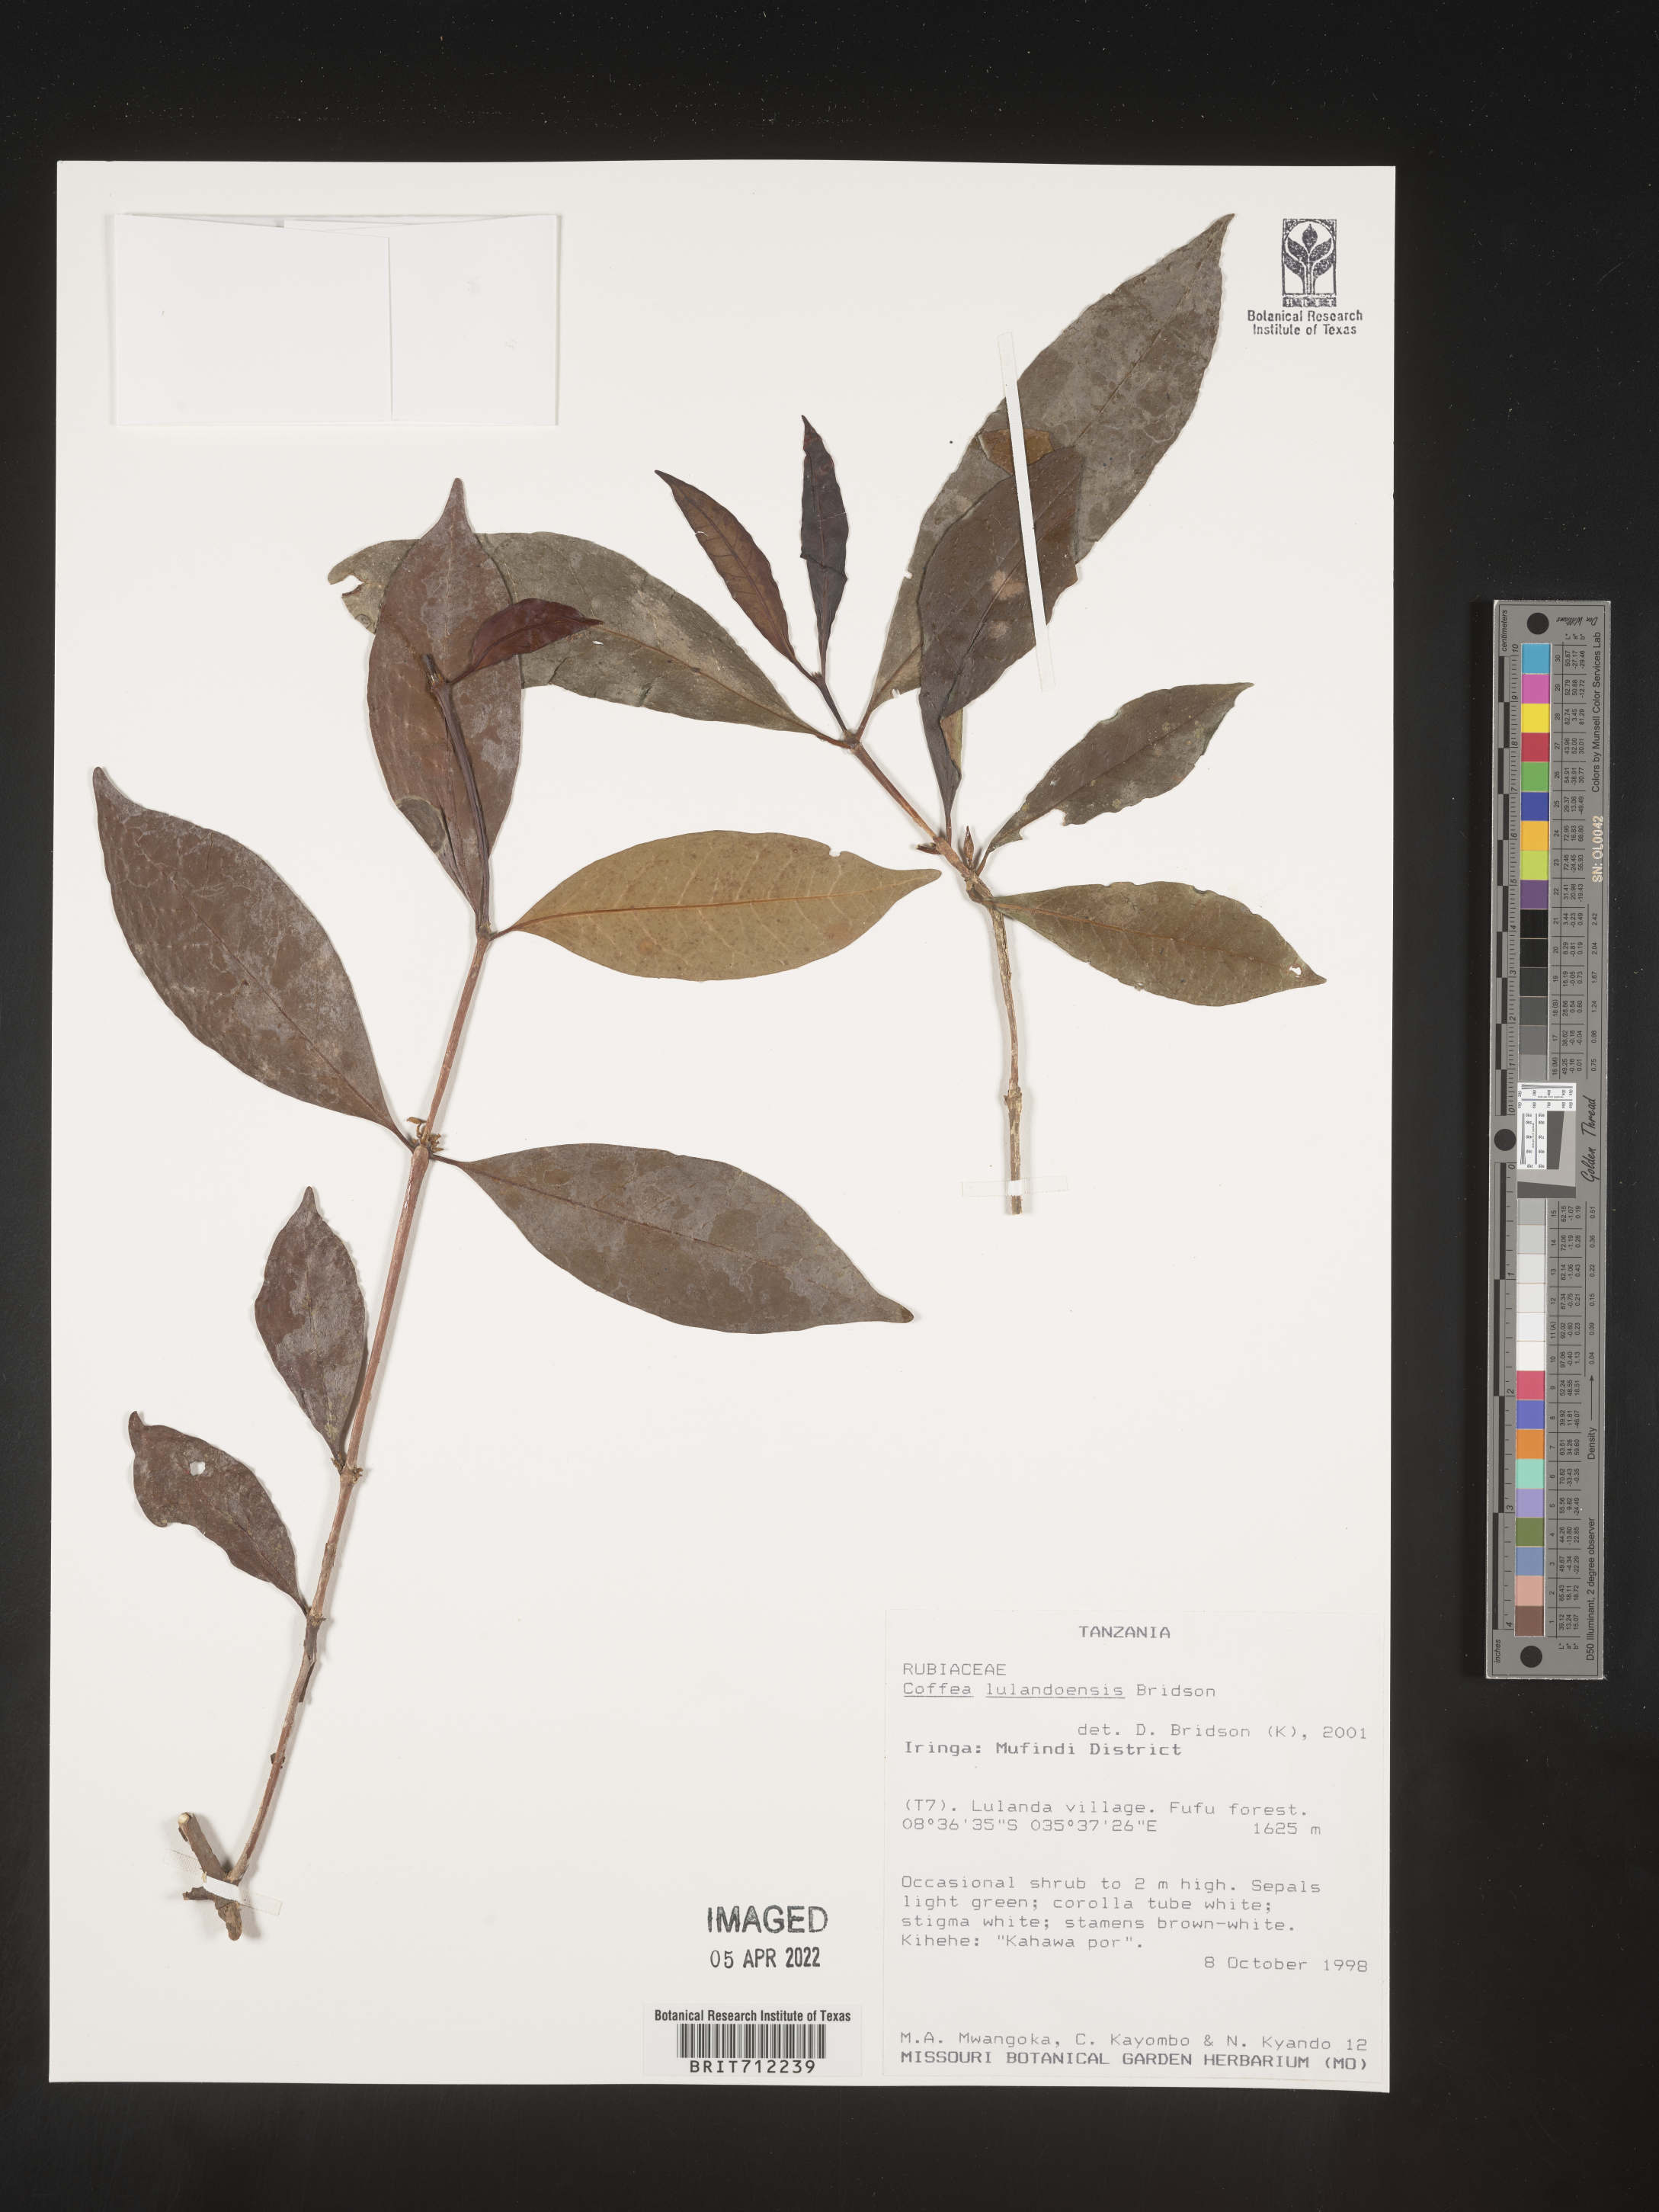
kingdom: Plantae
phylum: Tracheophyta
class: Magnoliopsida
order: Gentianales
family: Rubiaceae
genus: Coffea
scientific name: Coffea
